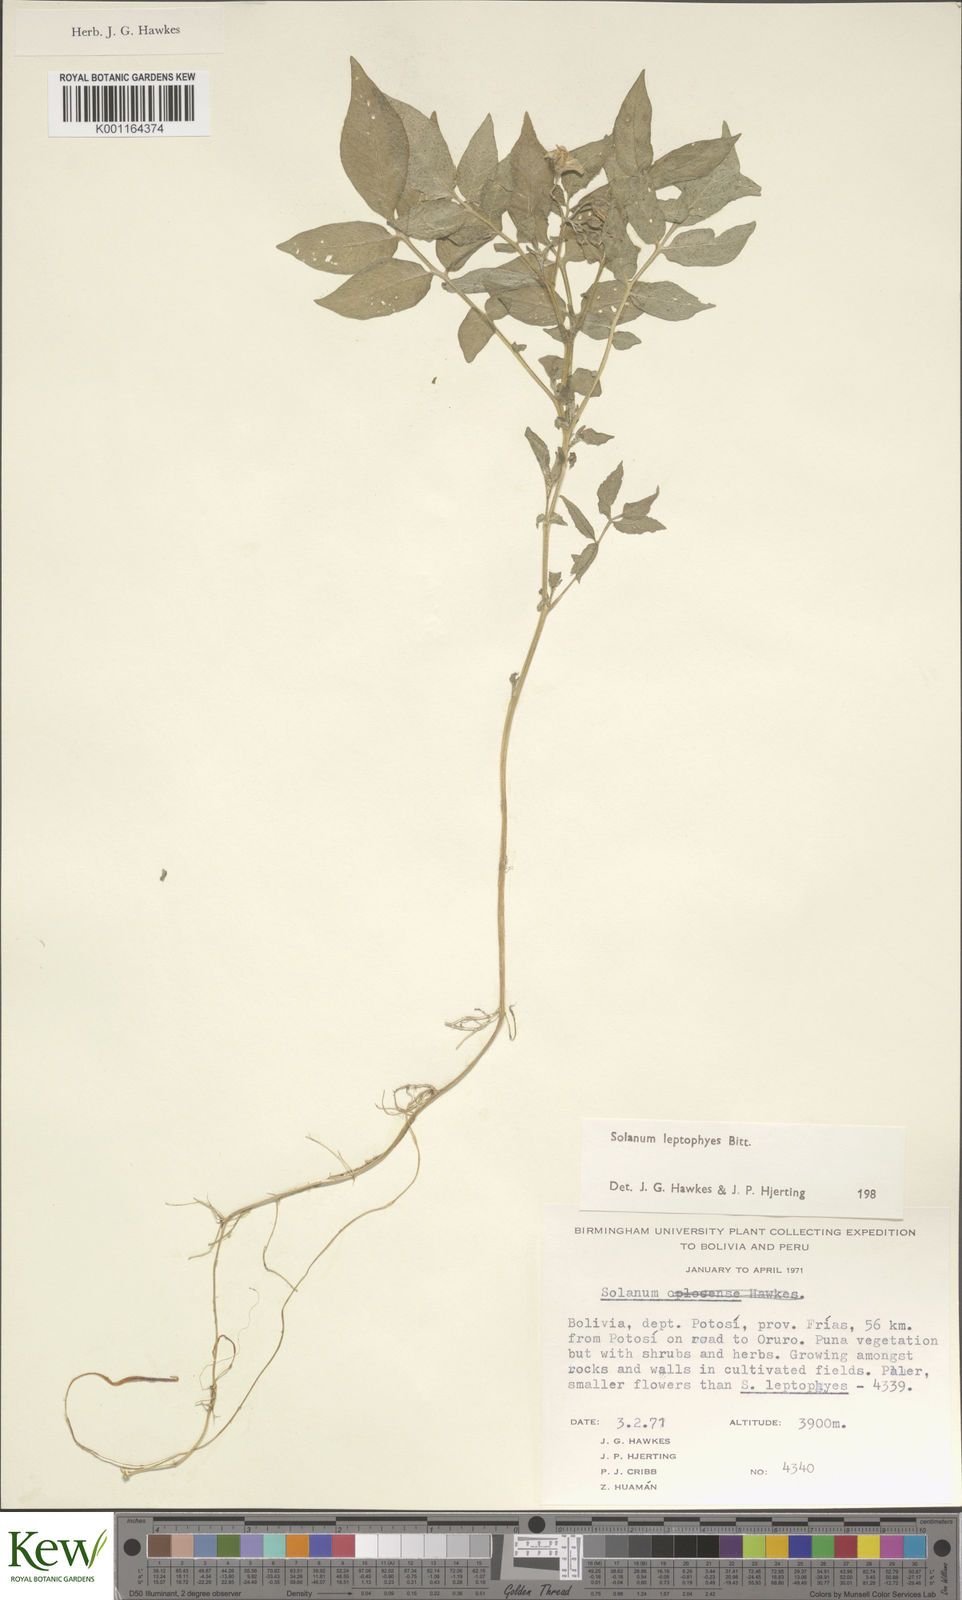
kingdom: Plantae
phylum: Tracheophyta
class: Magnoliopsida
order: Solanales
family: Solanaceae
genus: Solanum
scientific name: Solanum brevicaule
